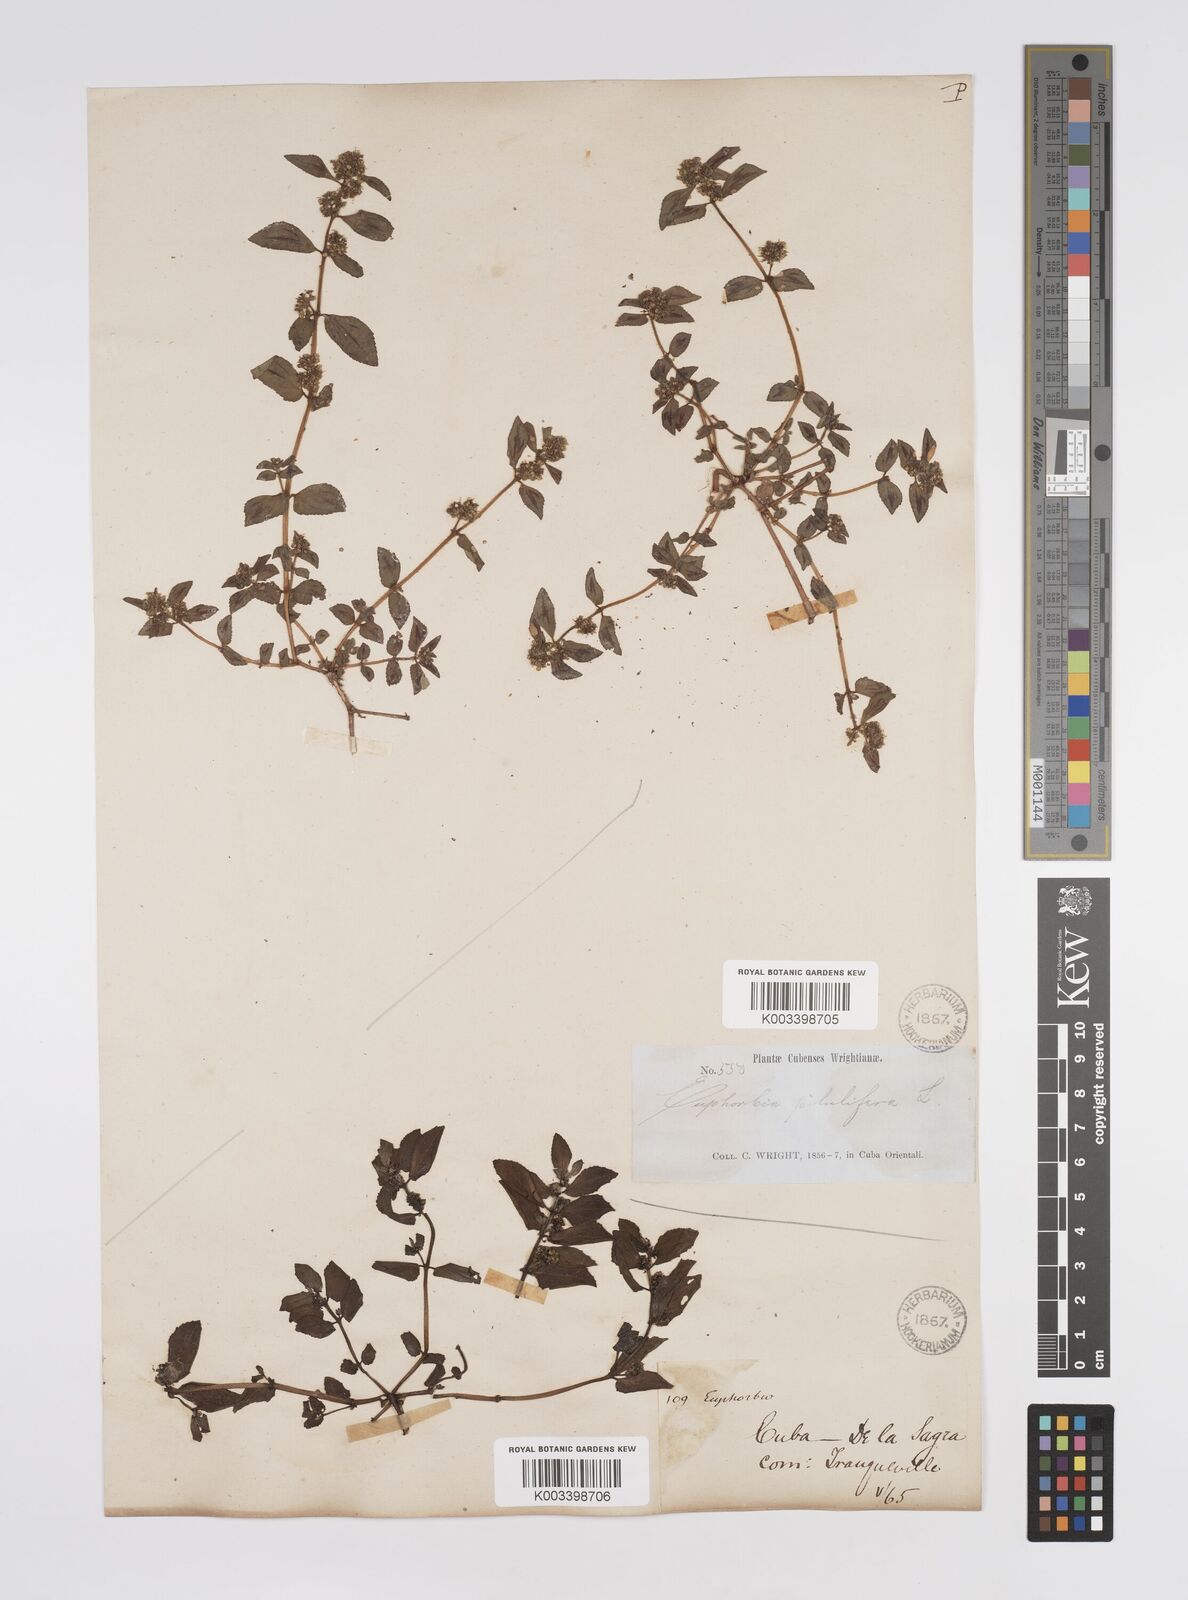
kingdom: Plantae
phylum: Tracheophyta
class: Magnoliopsida
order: Malpighiales
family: Euphorbiaceae
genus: Euphorbia
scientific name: Euphorbia hirta
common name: Pillpod sandmat
